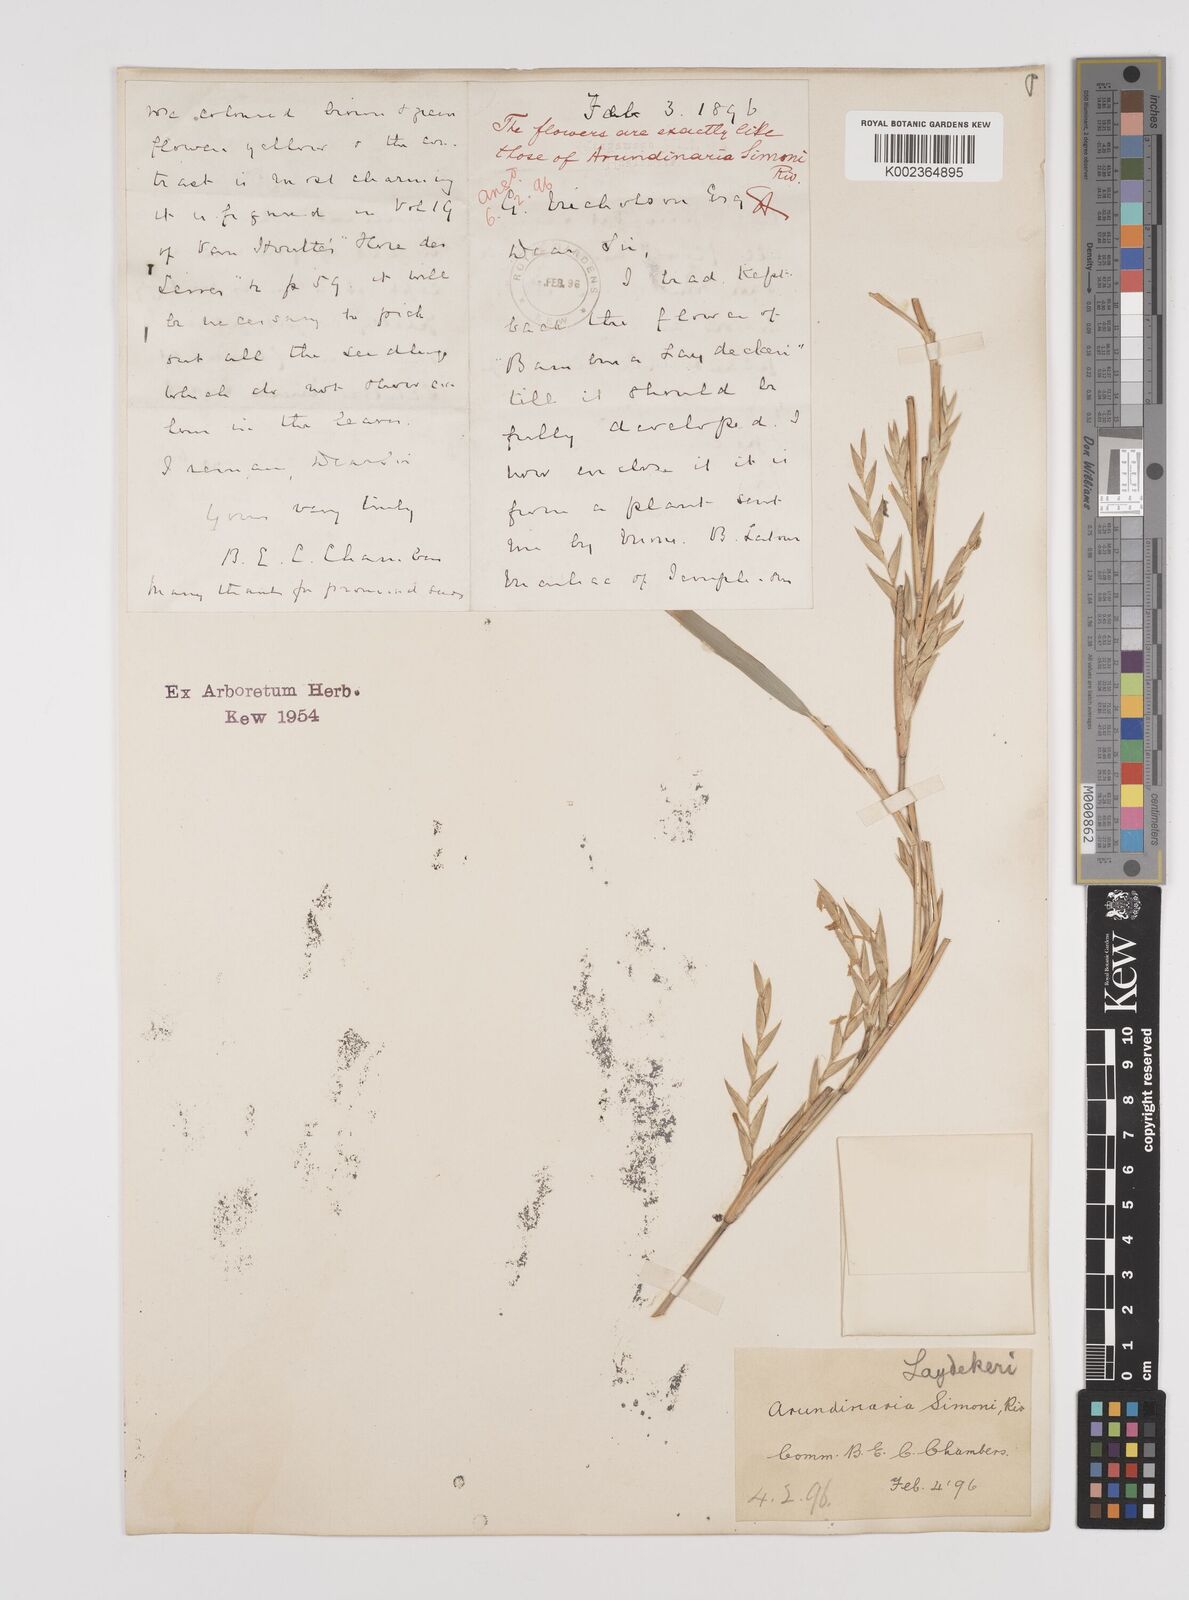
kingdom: Plantae
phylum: Tracheophyta
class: Liliopsida
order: Poales
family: Poaceae
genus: Pleioblastus
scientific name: Pleioblastus argenteostriatus
